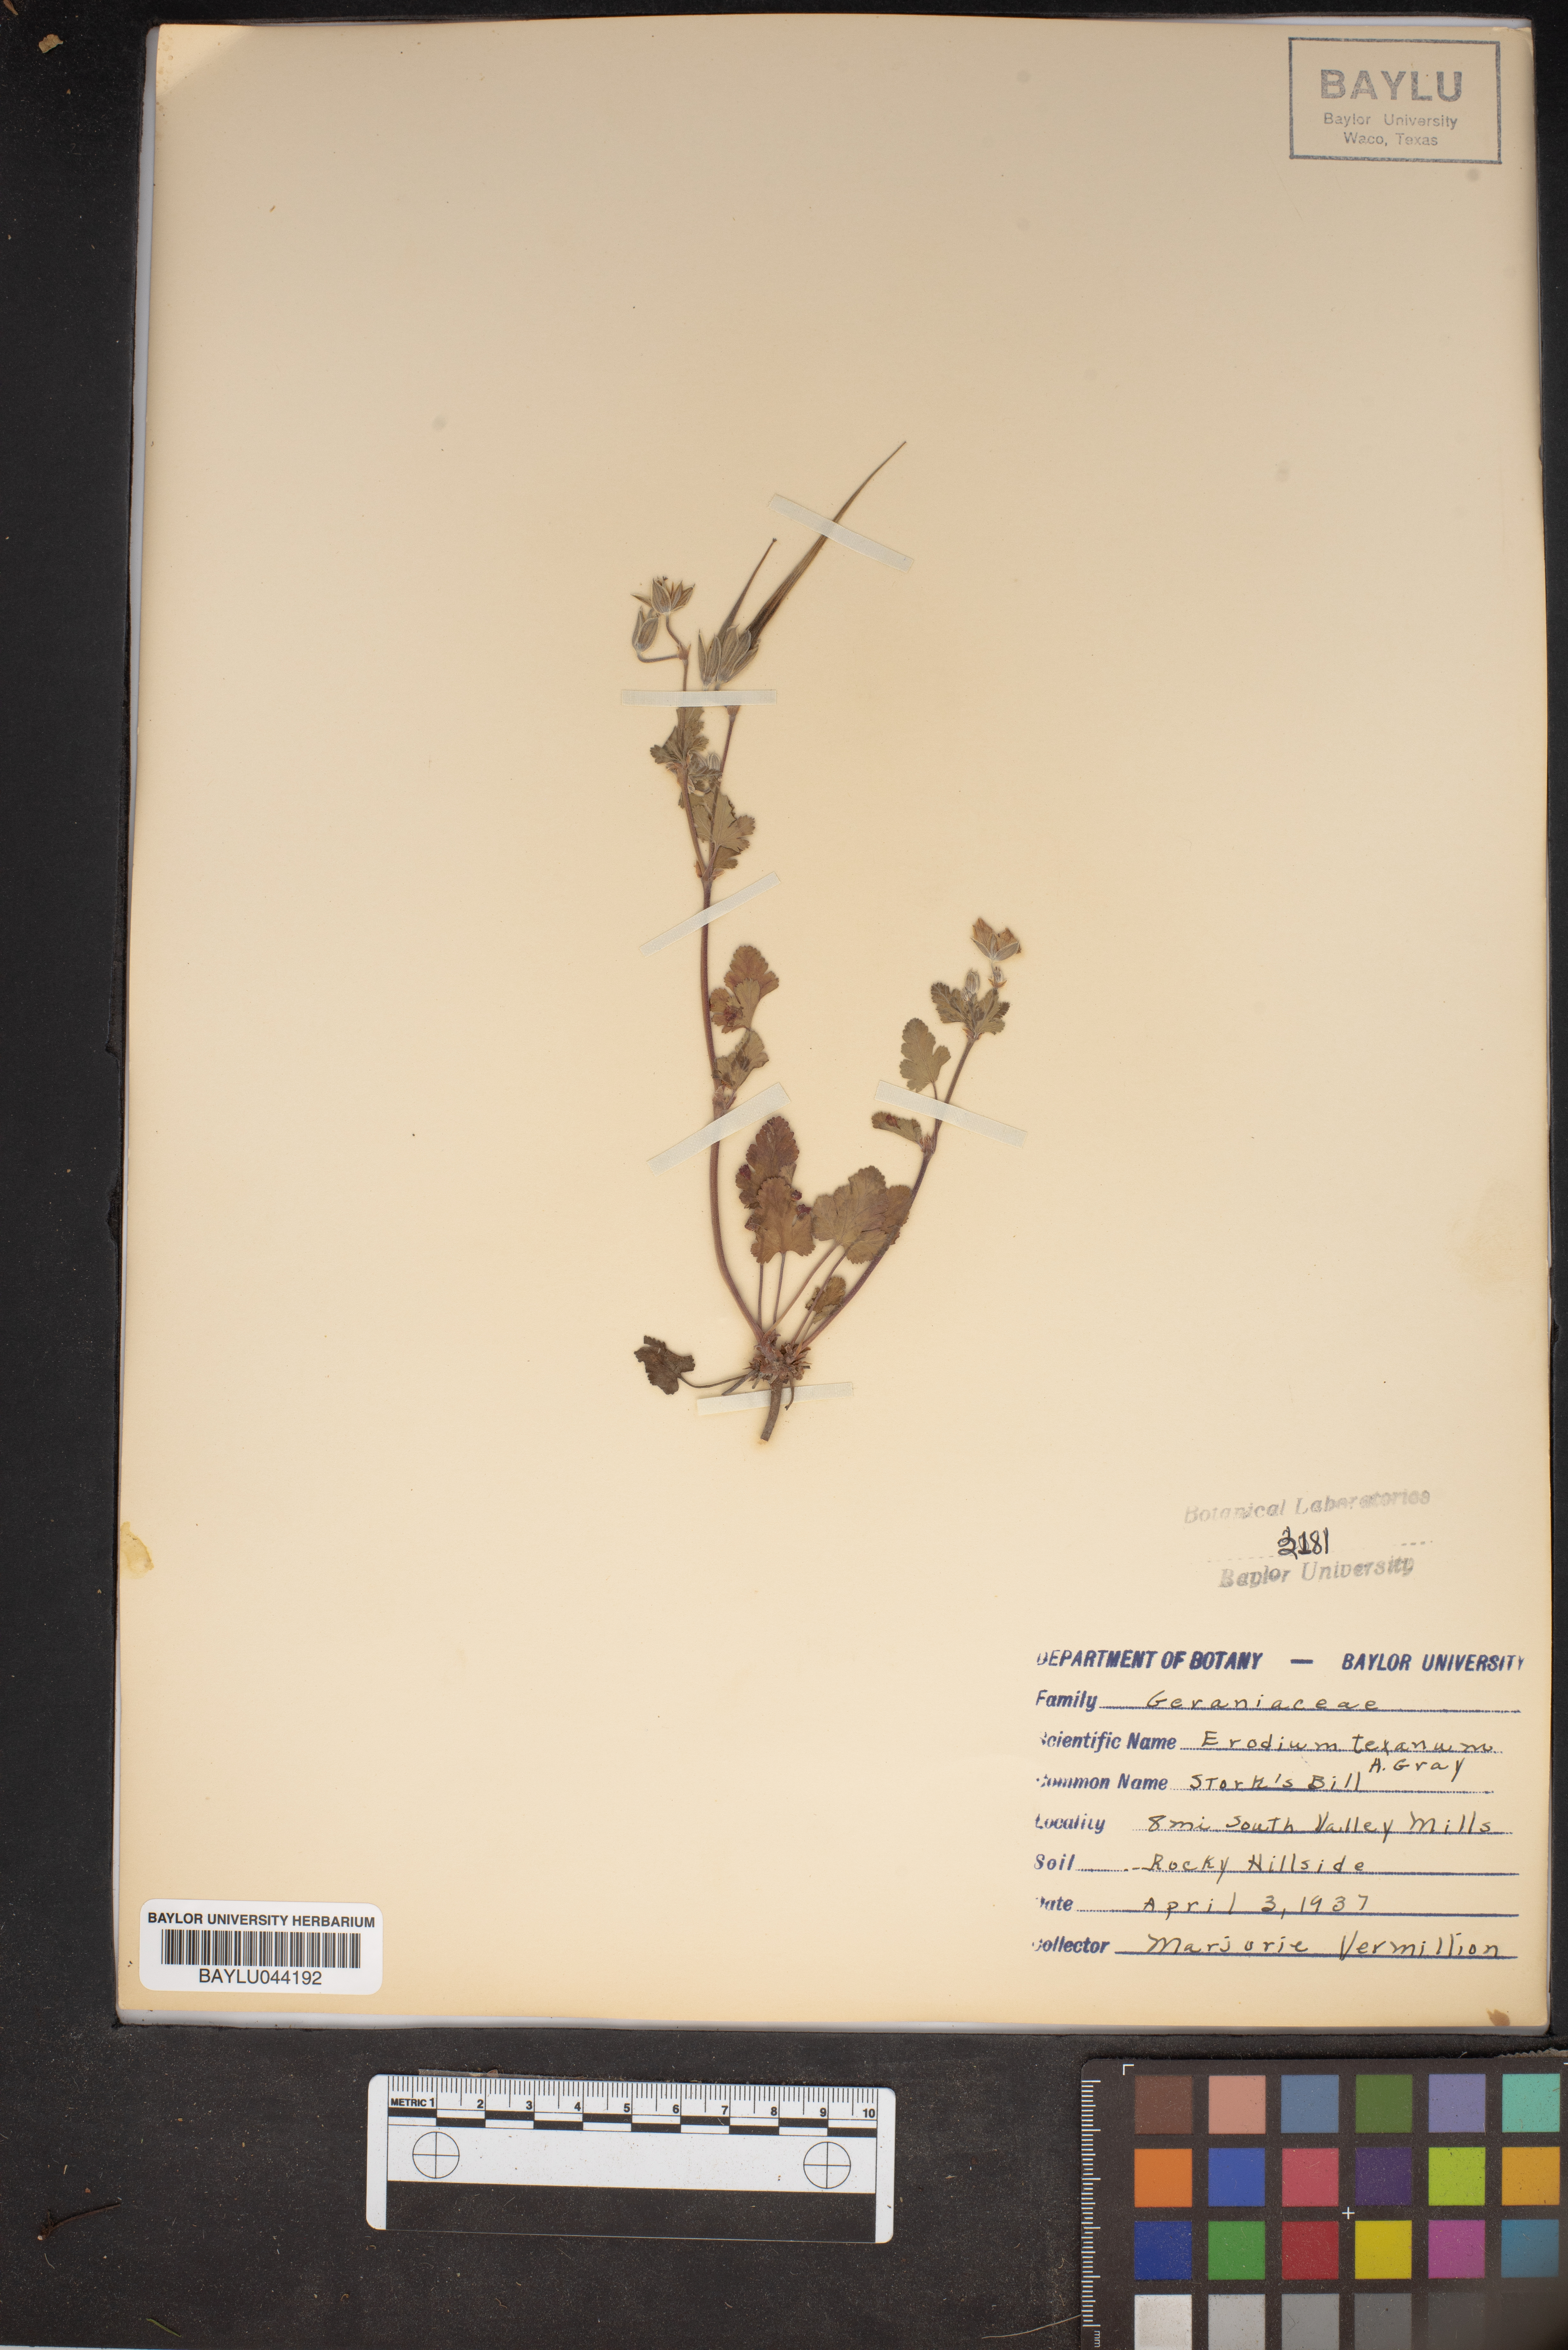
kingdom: Plantae
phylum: Tracheophyta
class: Magnoliopsida
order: Geraniales
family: Geraniaceae
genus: Erodium
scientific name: Erodium texanum
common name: Texas stork's-bill
